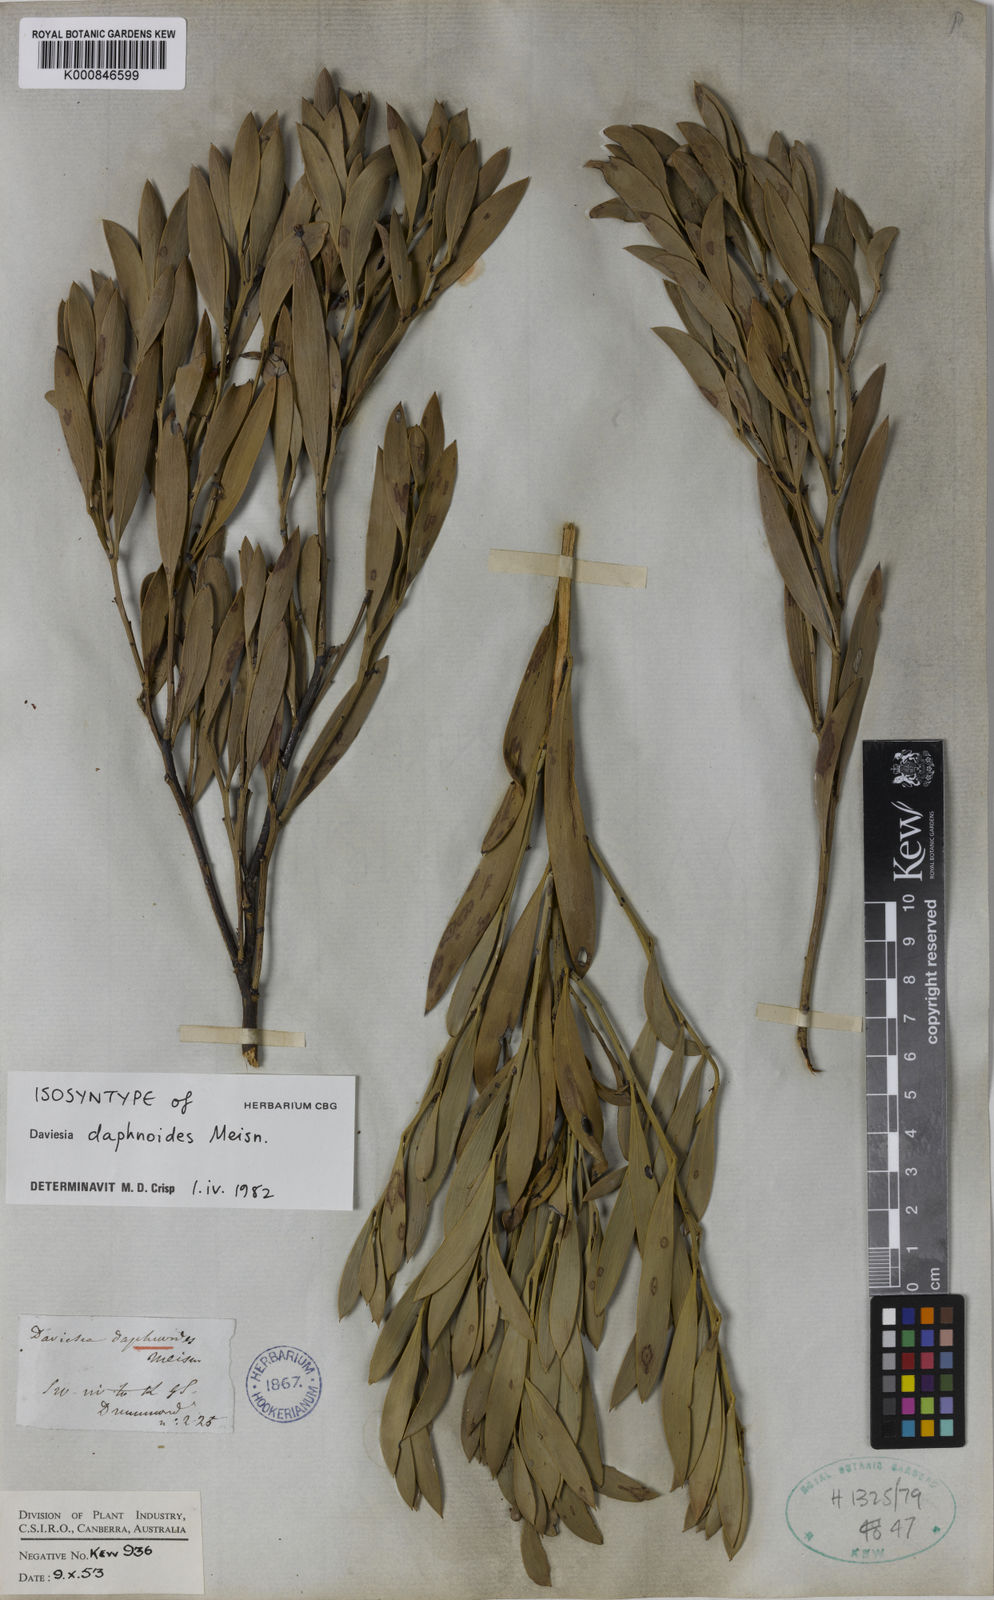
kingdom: Plantae
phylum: Tracheophyta
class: Magnoliopsida
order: Fabales
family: Fabaceae
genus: Daviesia
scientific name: Daviesia daphnoides
